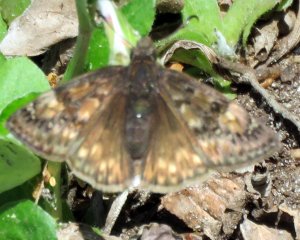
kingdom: Animalia
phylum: Arthropoda
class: Insecta
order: Lepidoptera
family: Hesperiidae
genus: Gesta
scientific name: Gesta
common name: Juvenal's Duskywing
